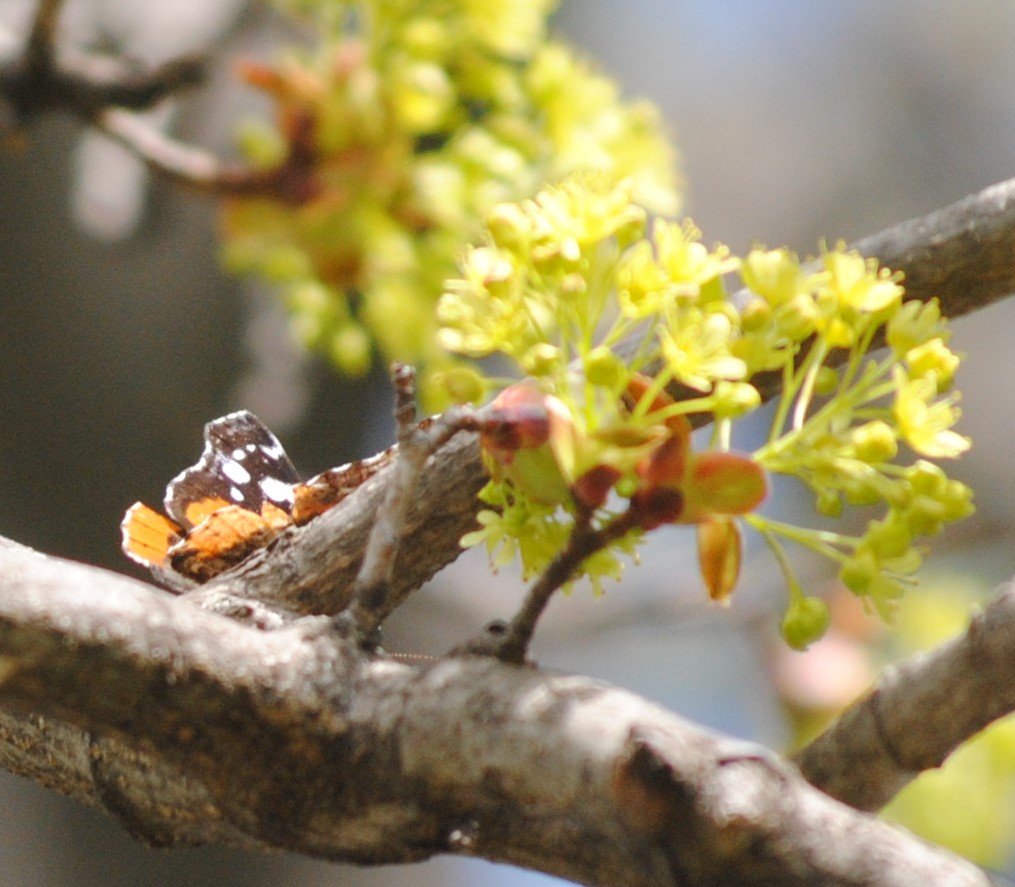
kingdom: Animalia
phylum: Arthropoda
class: Insecta
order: Lepidoptera
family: Nymphalidae
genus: Vanessa
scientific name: Vanessa virginiensis
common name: American Lady
